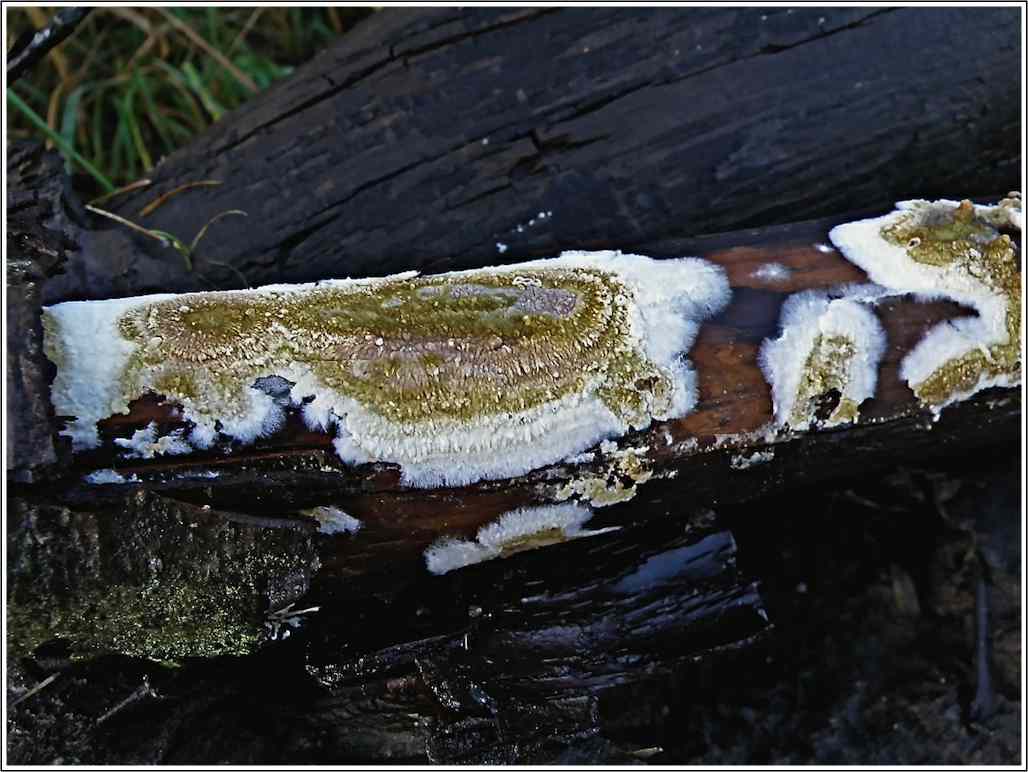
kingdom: Fungi
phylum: Basidiomycota
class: Agaricomycetes
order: Boletales
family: Coniophoraceae
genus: Coniophora
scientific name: Coniophora puteana
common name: gul tømmersvamp
